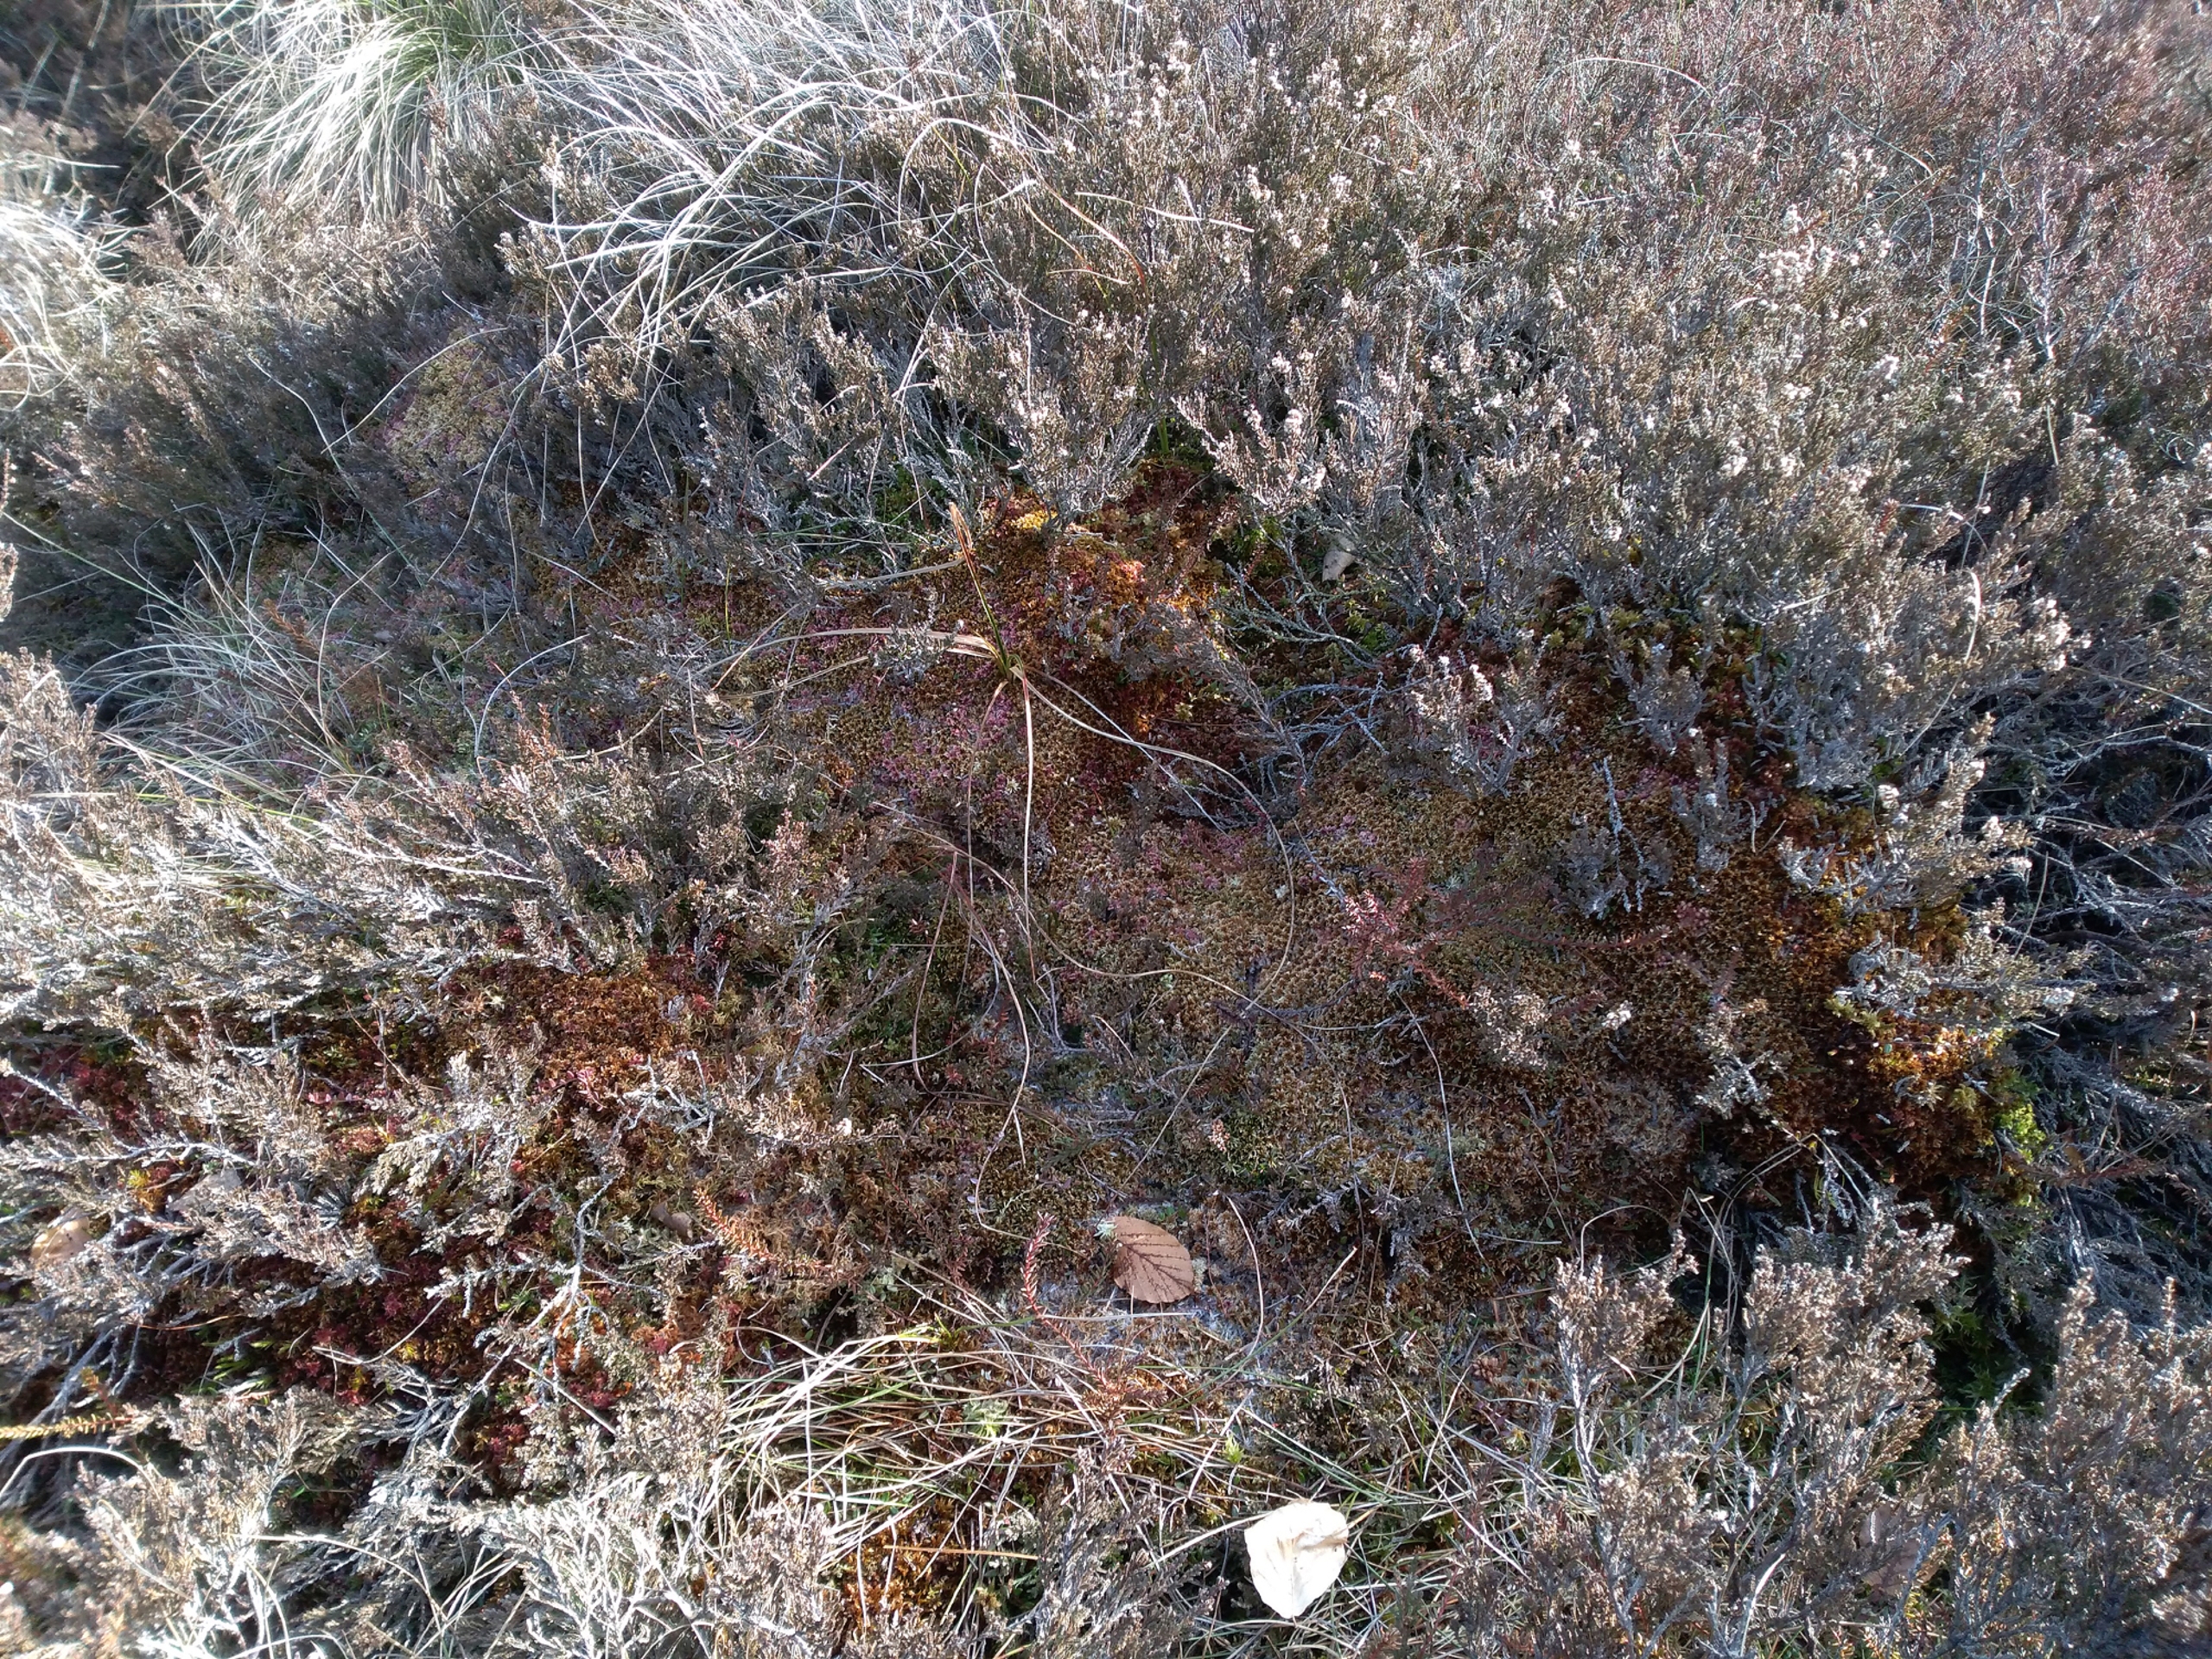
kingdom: Plantae
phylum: Bryophyta
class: Sphagnopsida
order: Sphagnales
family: Sphagnaceae
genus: Sphagnum
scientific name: Sphagnum fuscum
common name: Rustbrun tørvemos
